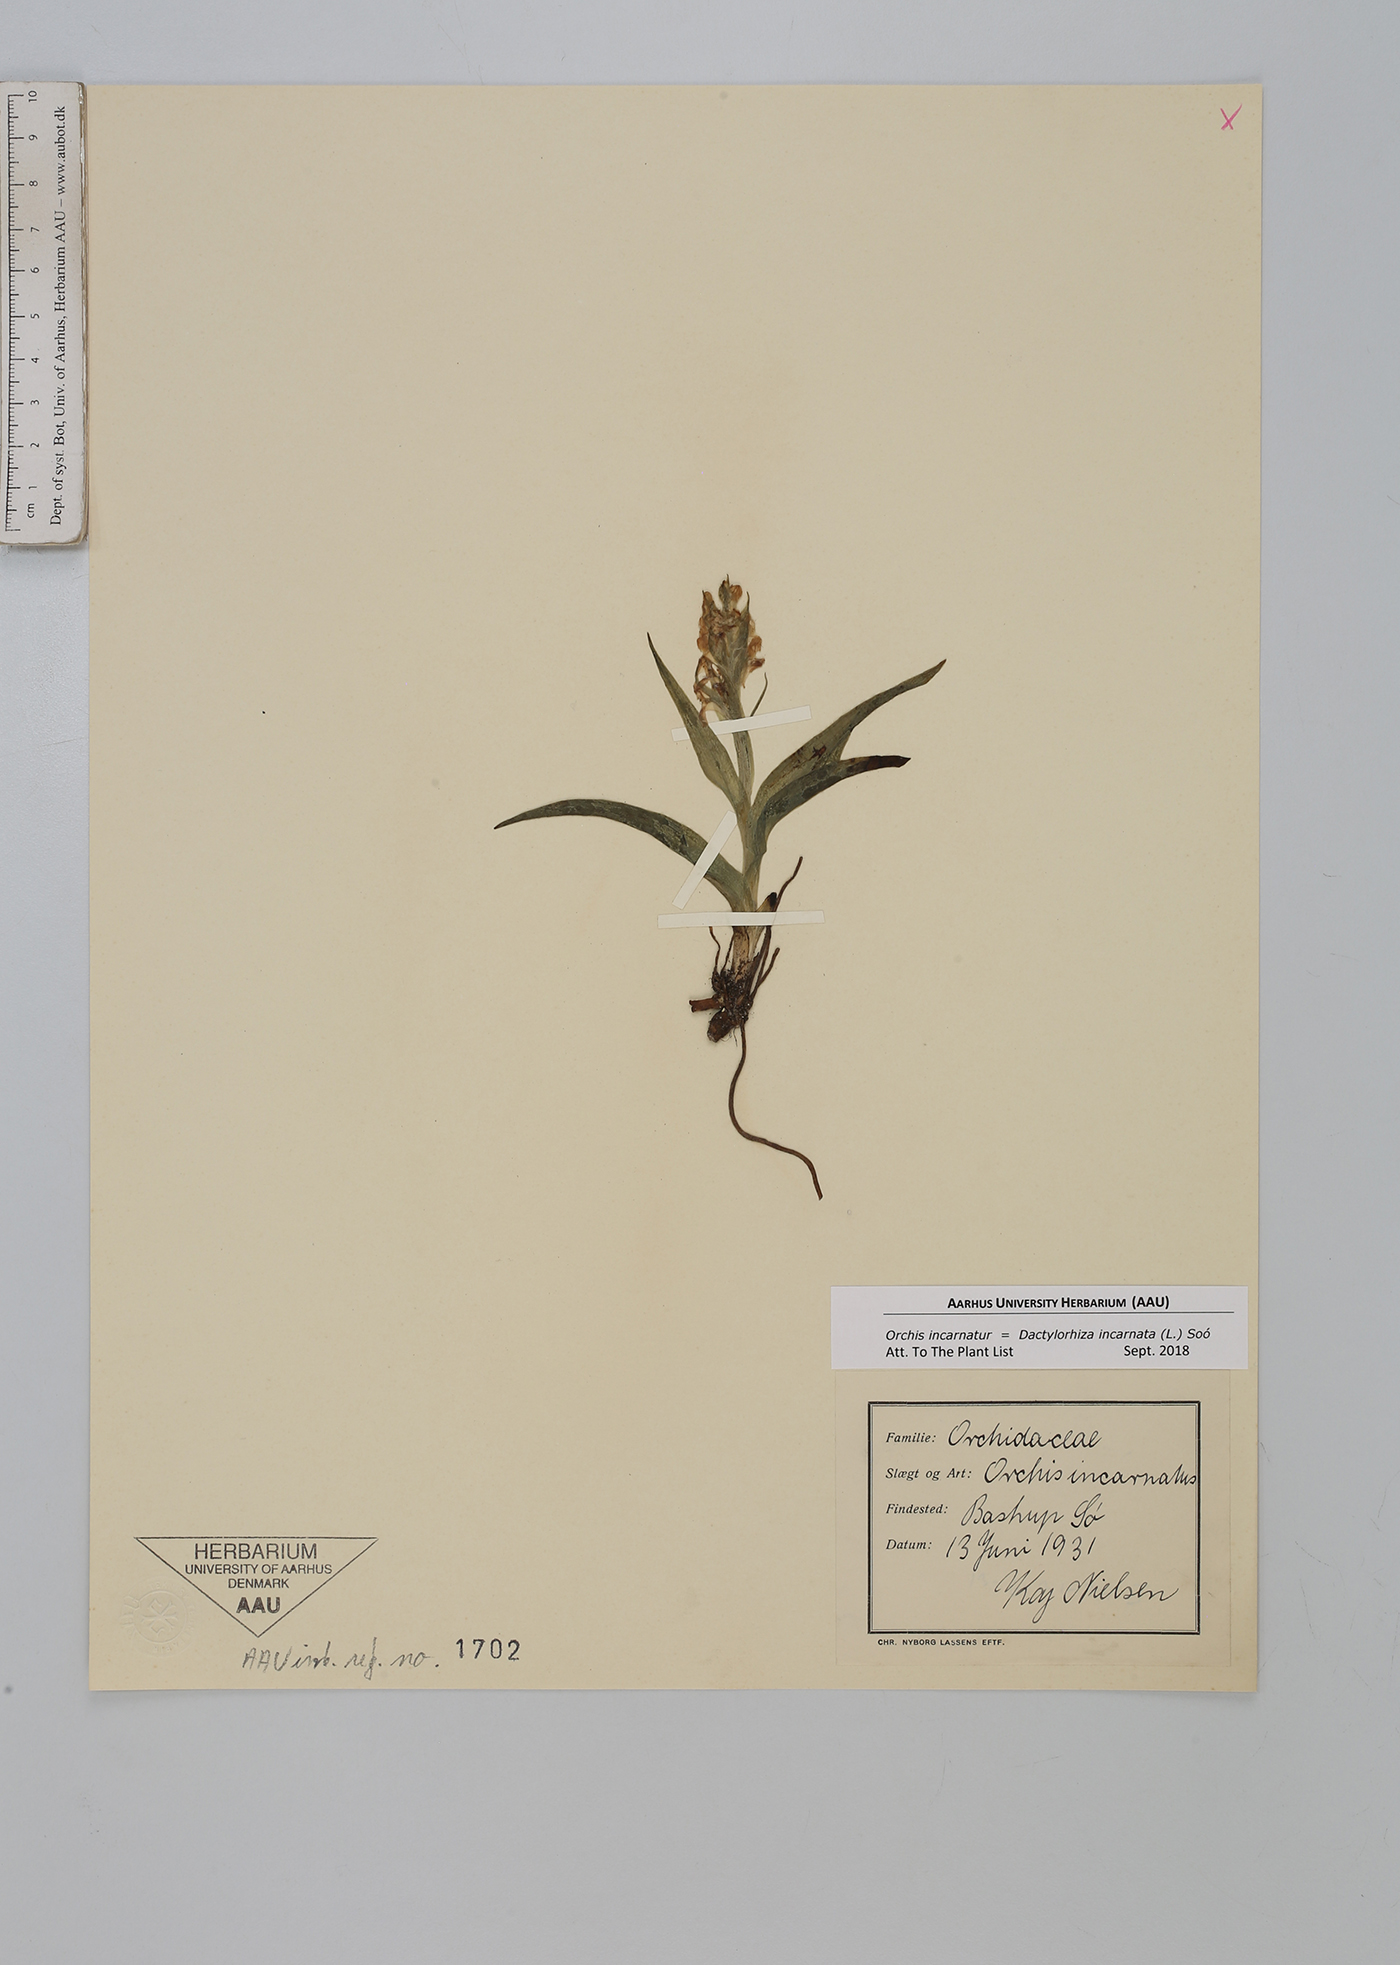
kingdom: Plantae
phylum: Tracheophyta
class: Liliopsida
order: Asparagales
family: Orchidaceae
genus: Dactylorhiza
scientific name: Dactylorhiza incarnata
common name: Early marsh-orchid
